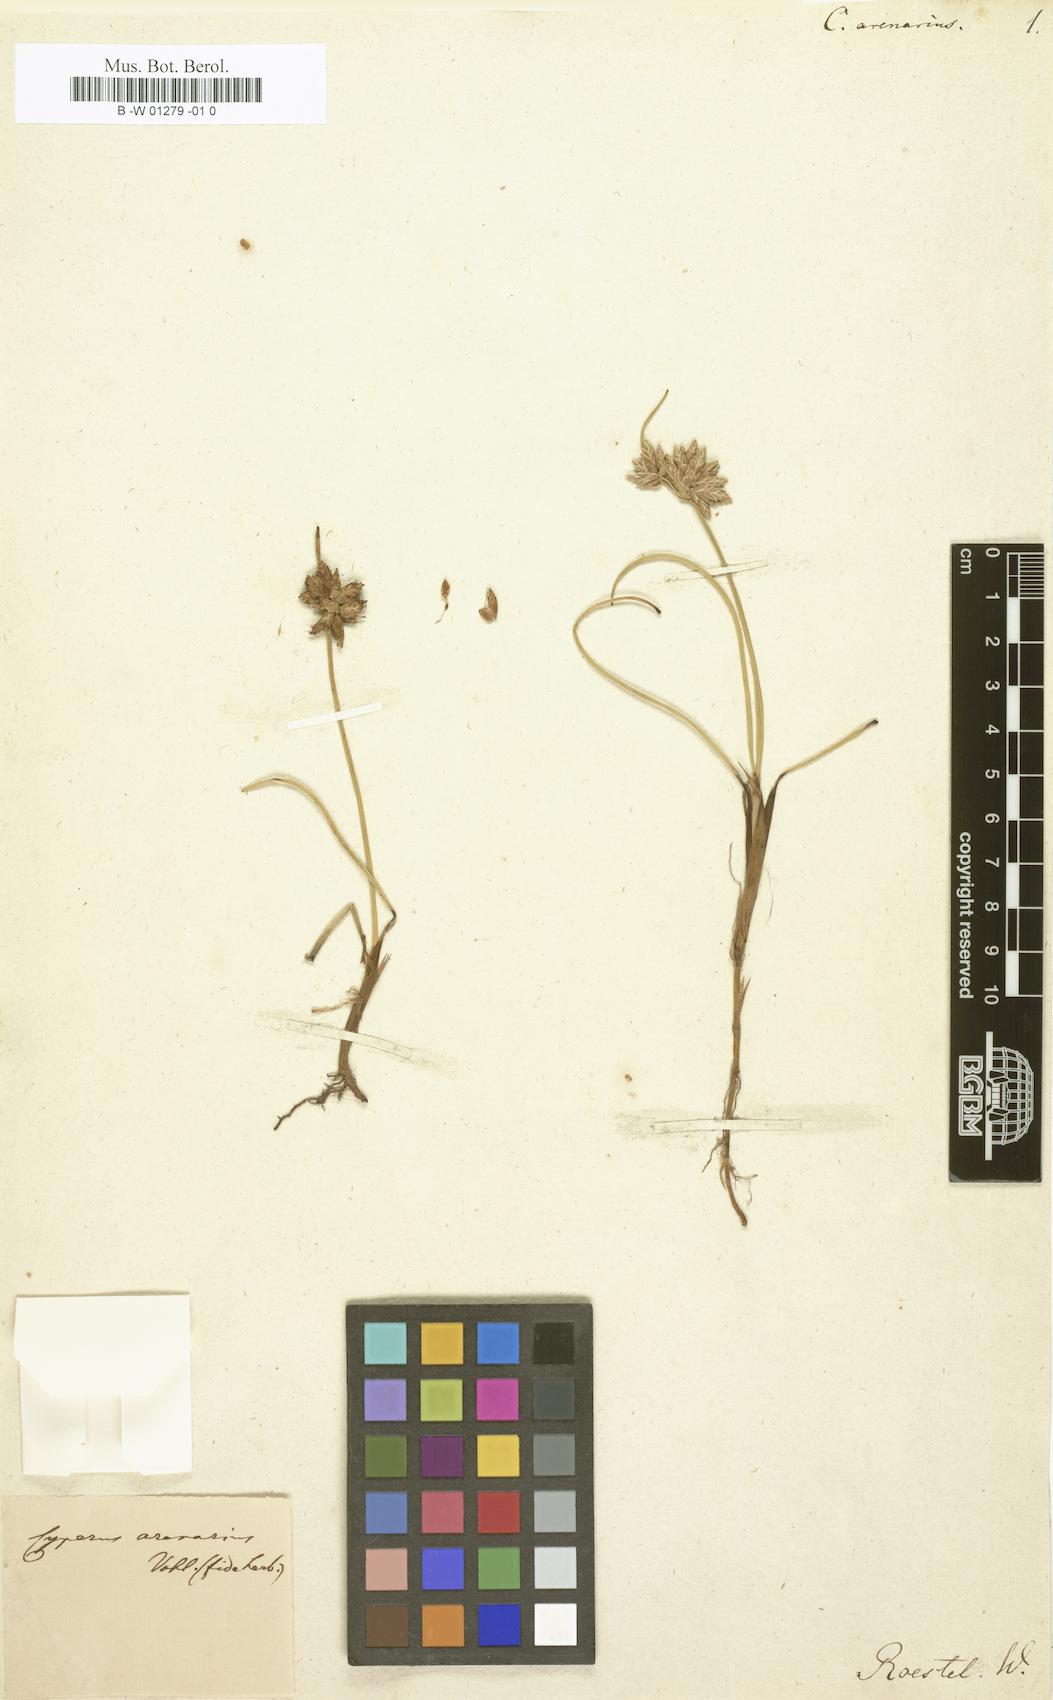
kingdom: Plantae
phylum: Tracheophyta
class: Liliopsida
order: Poales
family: Cyperaceae
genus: Cyperus
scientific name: Cyperus arenarius
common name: Dwarf sedge
